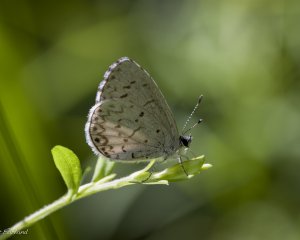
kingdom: Animalia
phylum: Arthropoda
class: Insecta
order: Lepidoptera
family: Lycaenidae
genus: Cyaniris
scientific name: Cyaniris neglecta
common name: Summer Azure
